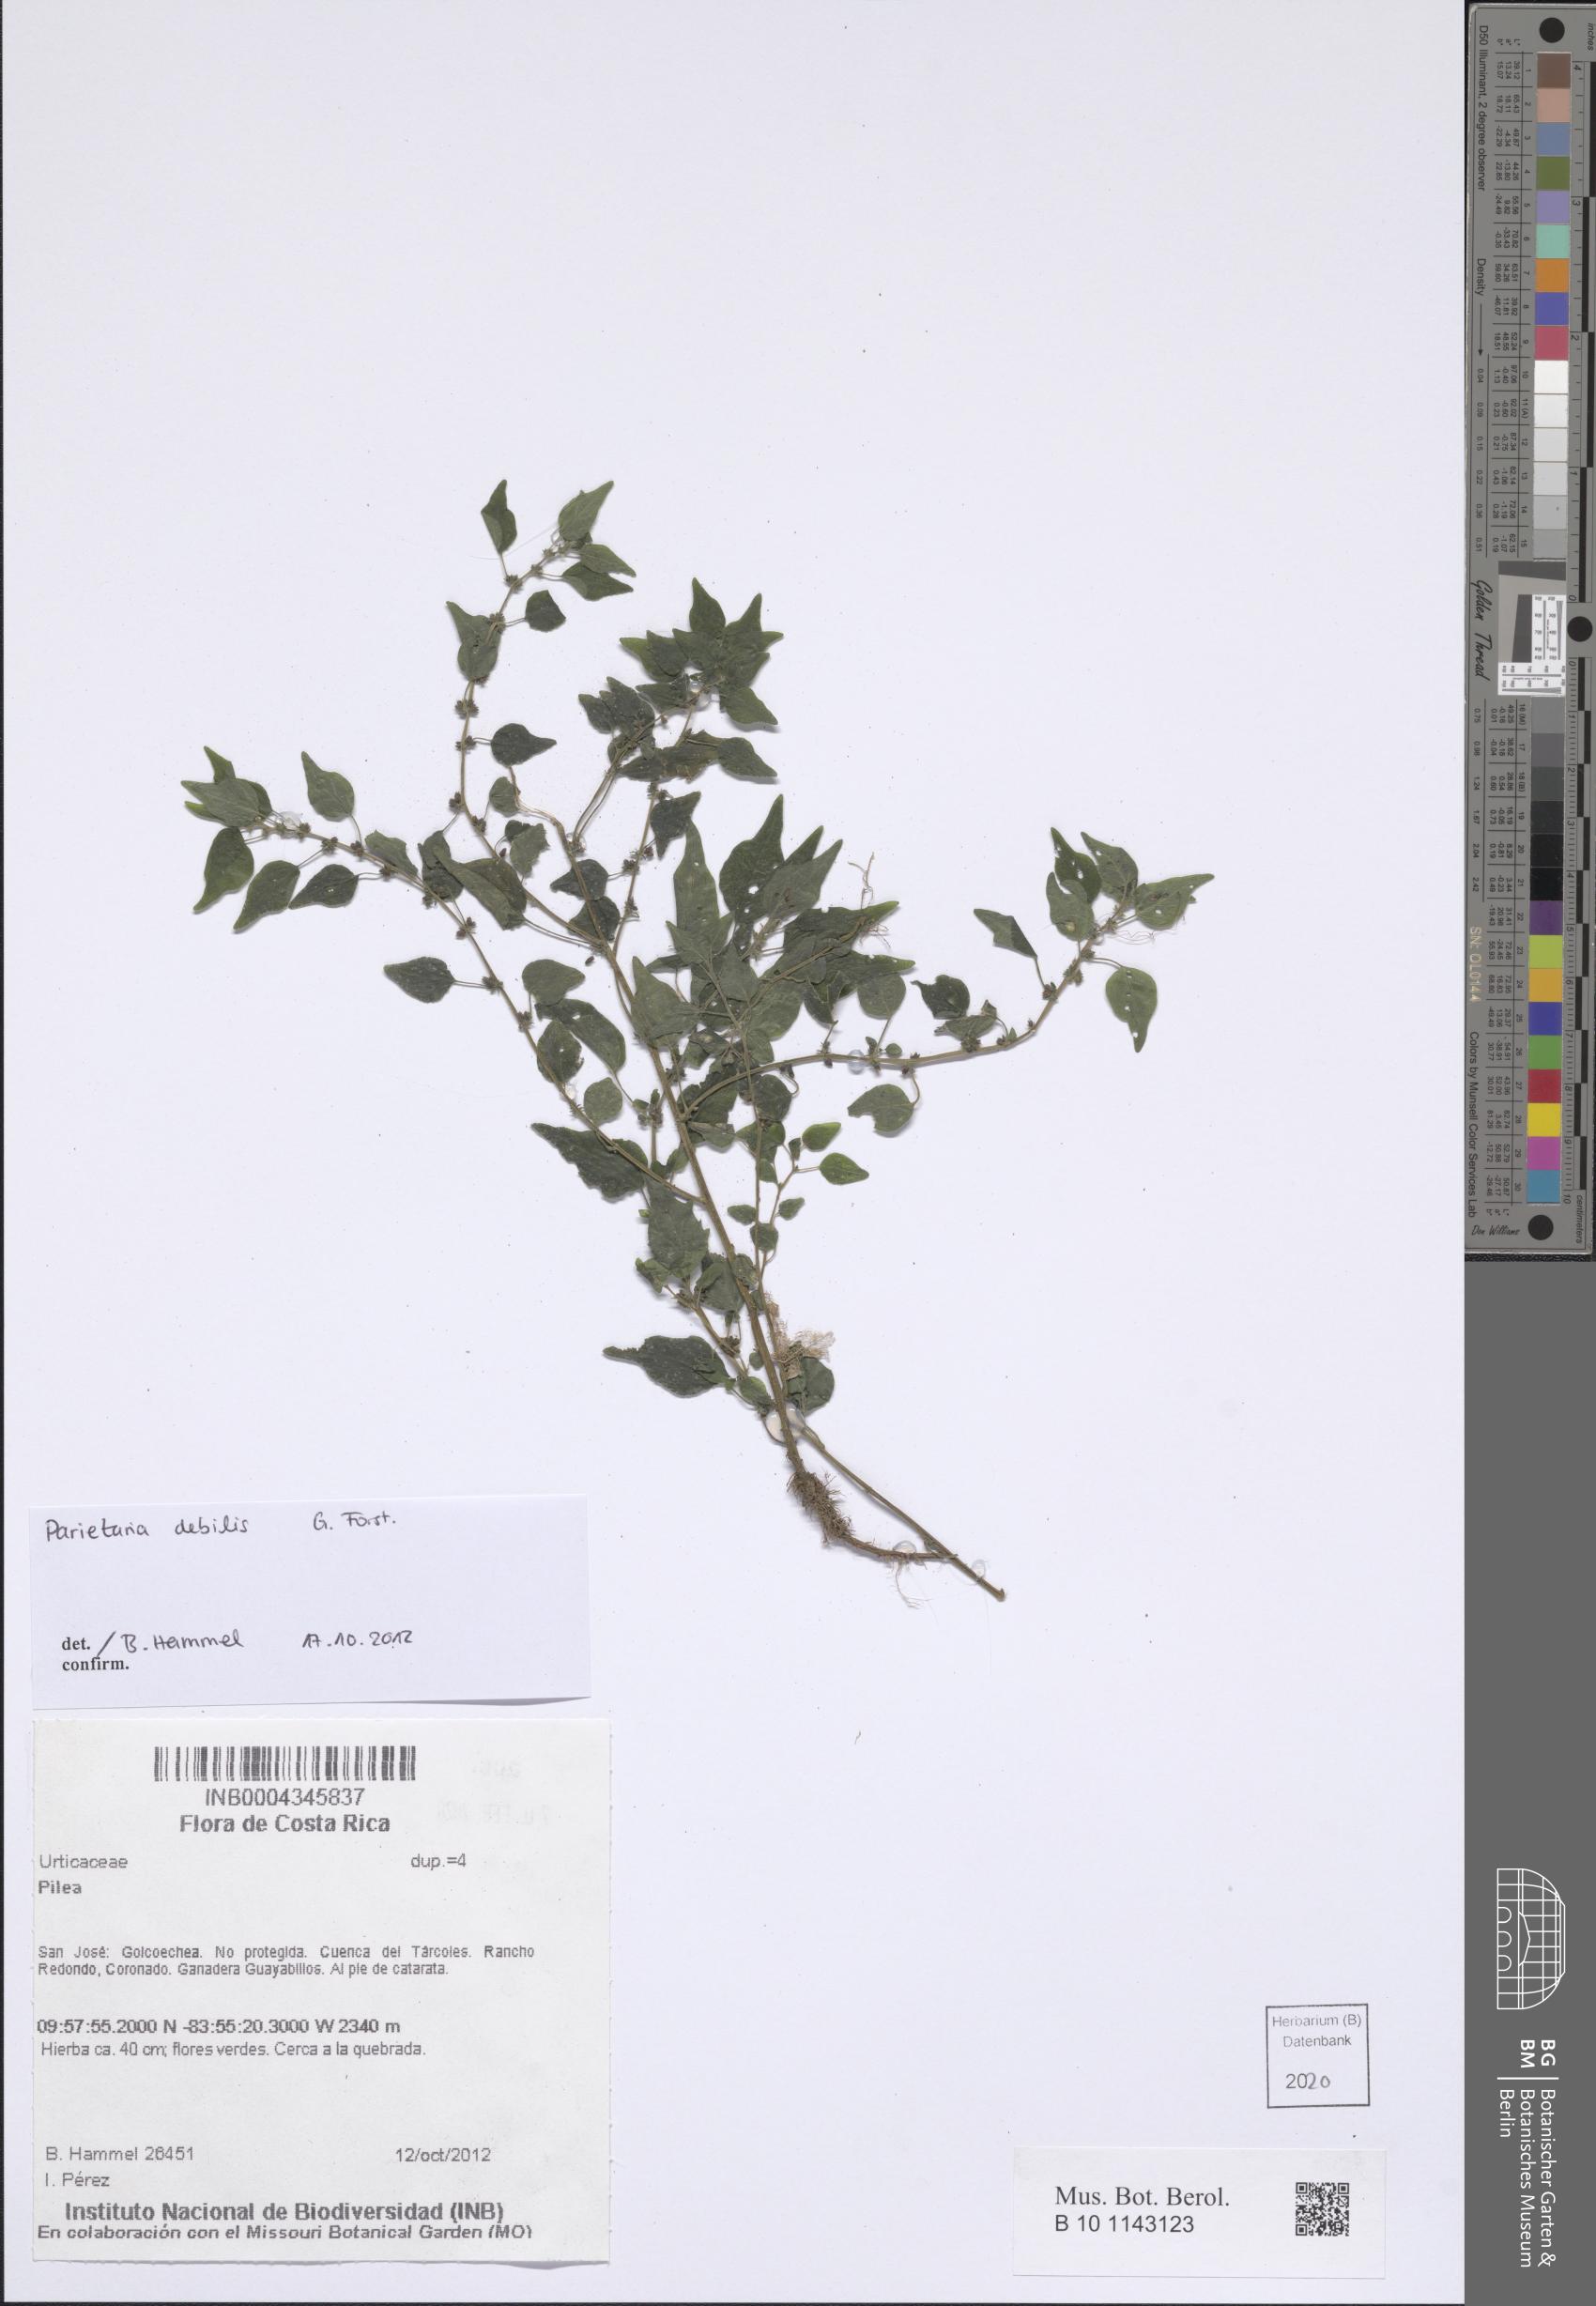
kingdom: Plantae
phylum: Tracheophyta
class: Magnoliopsida
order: Rosales
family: Urticaceae
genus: Parietaria
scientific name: Parietaria debilis
